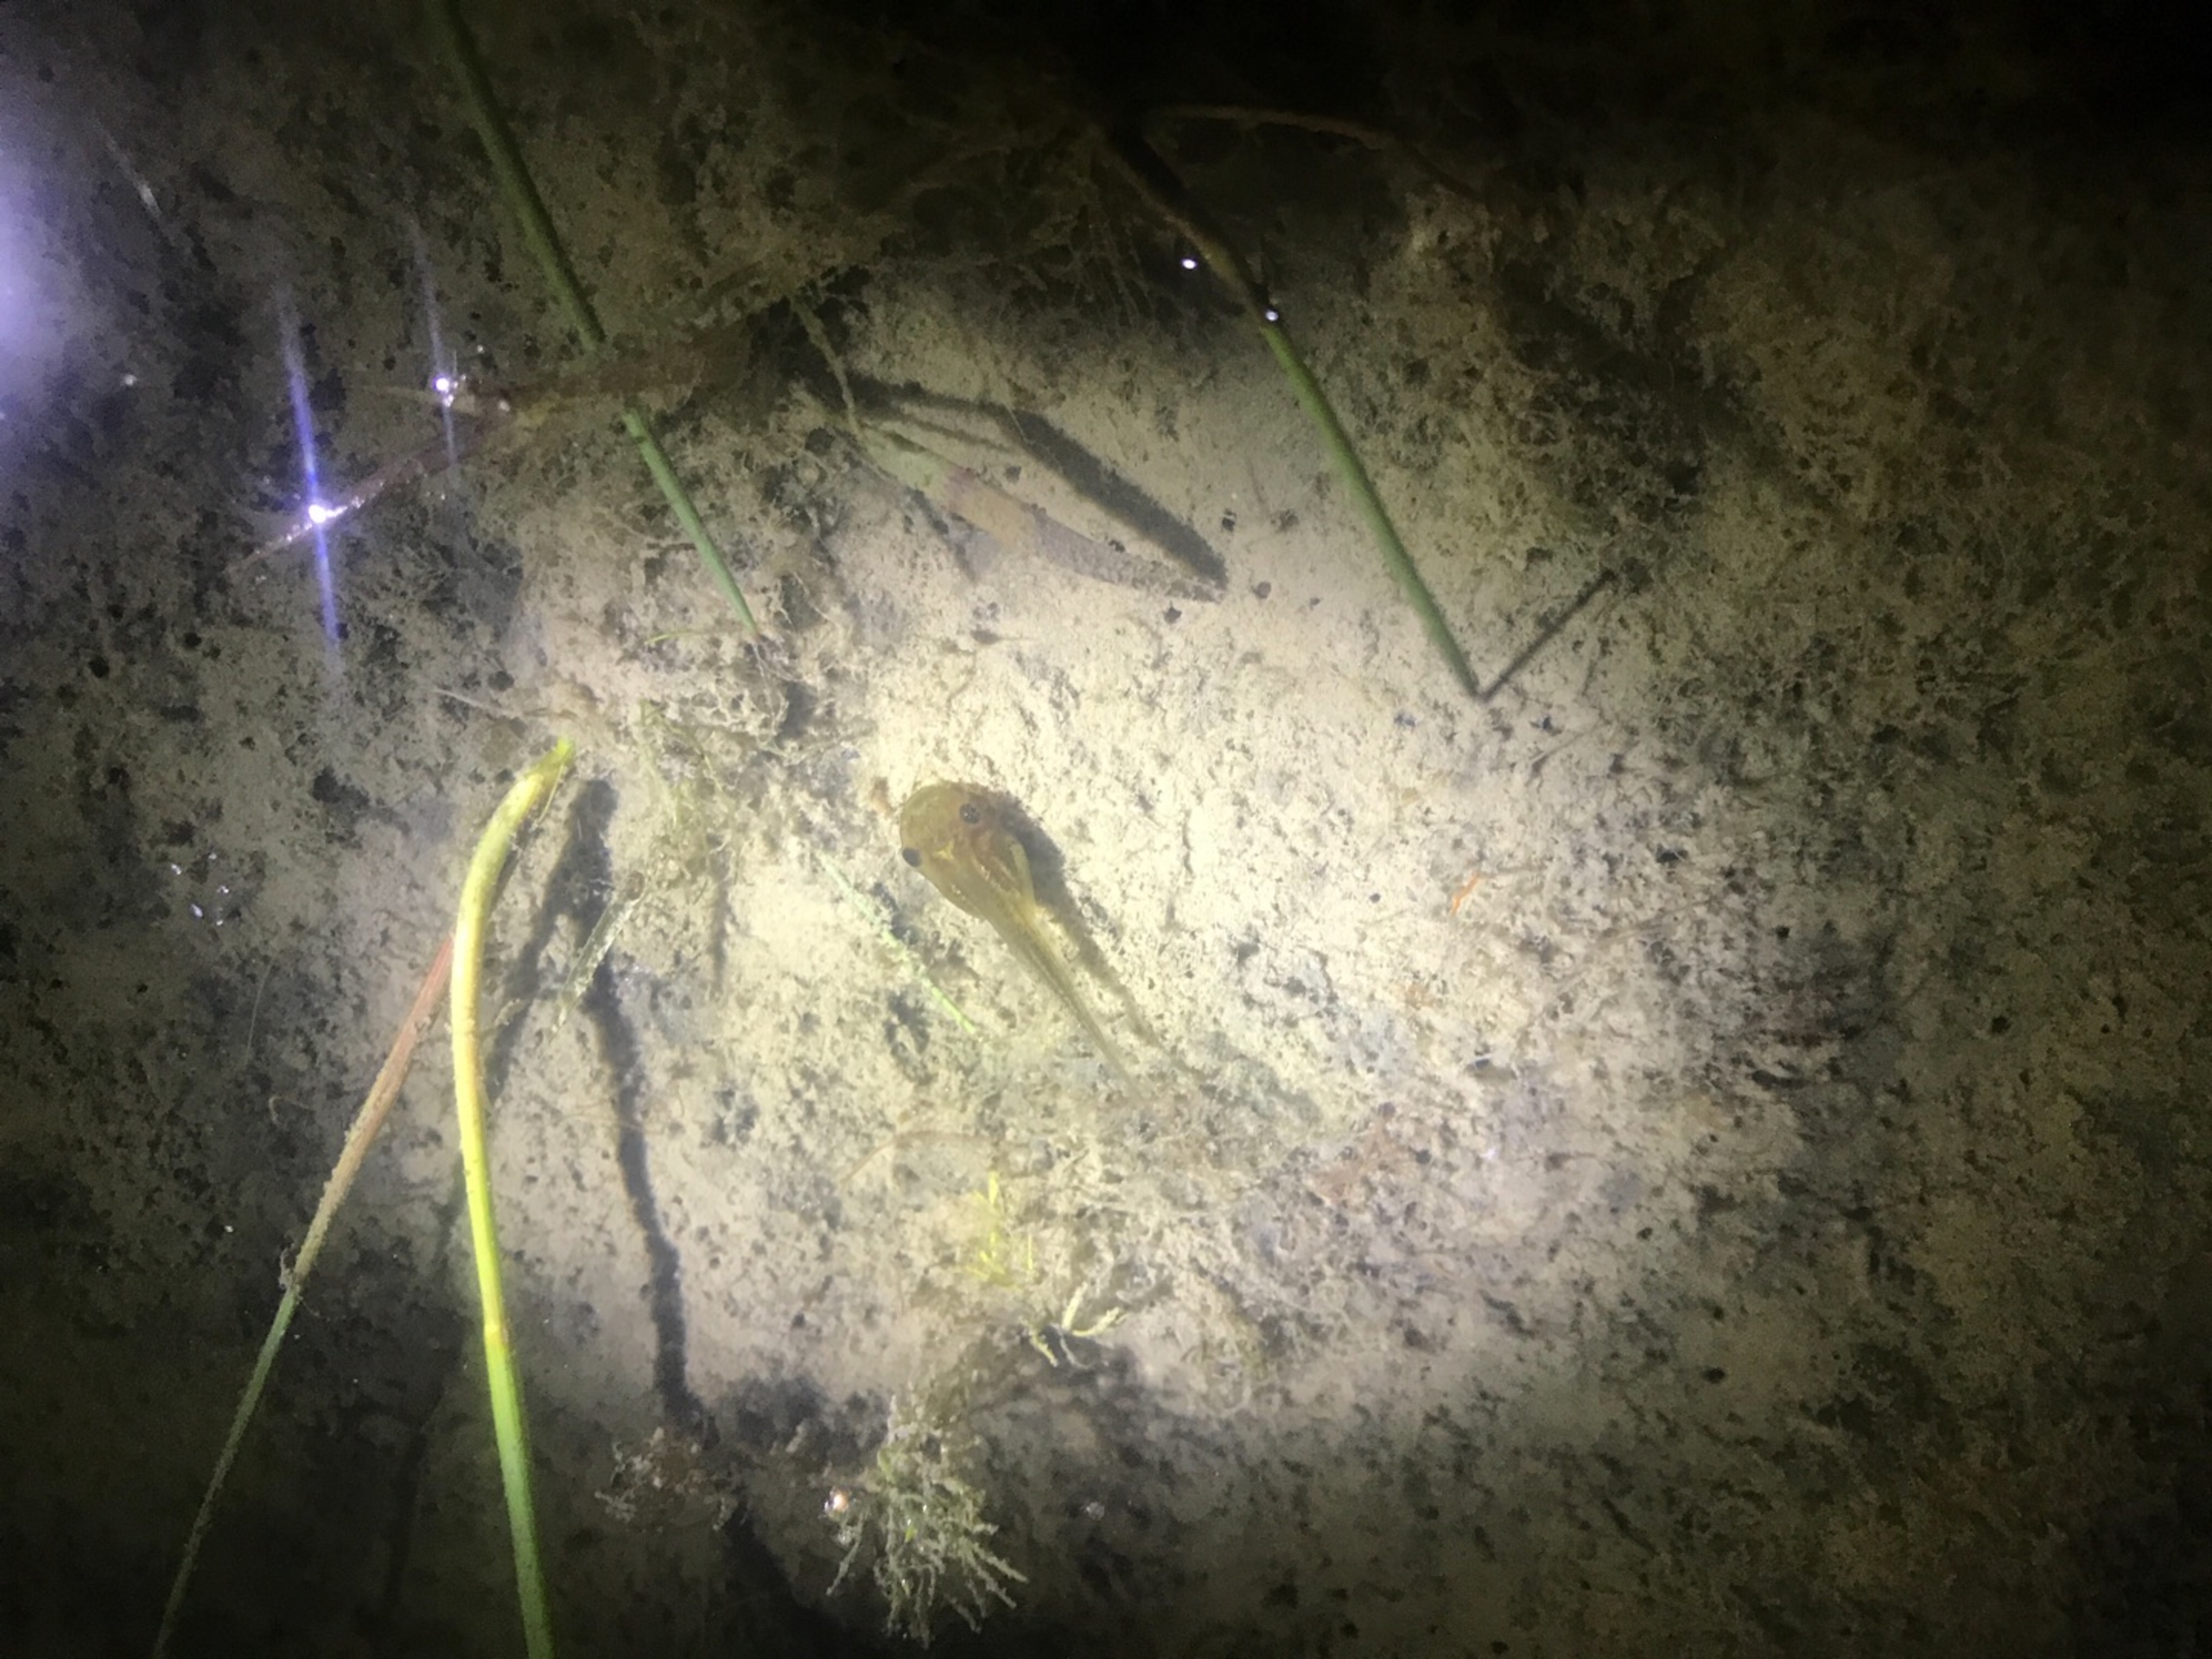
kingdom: Animalia
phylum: Chordata
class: Amphibia
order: Anura
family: Hylidae
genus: Hyla
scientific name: Hyla arborea
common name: Løvfrø
